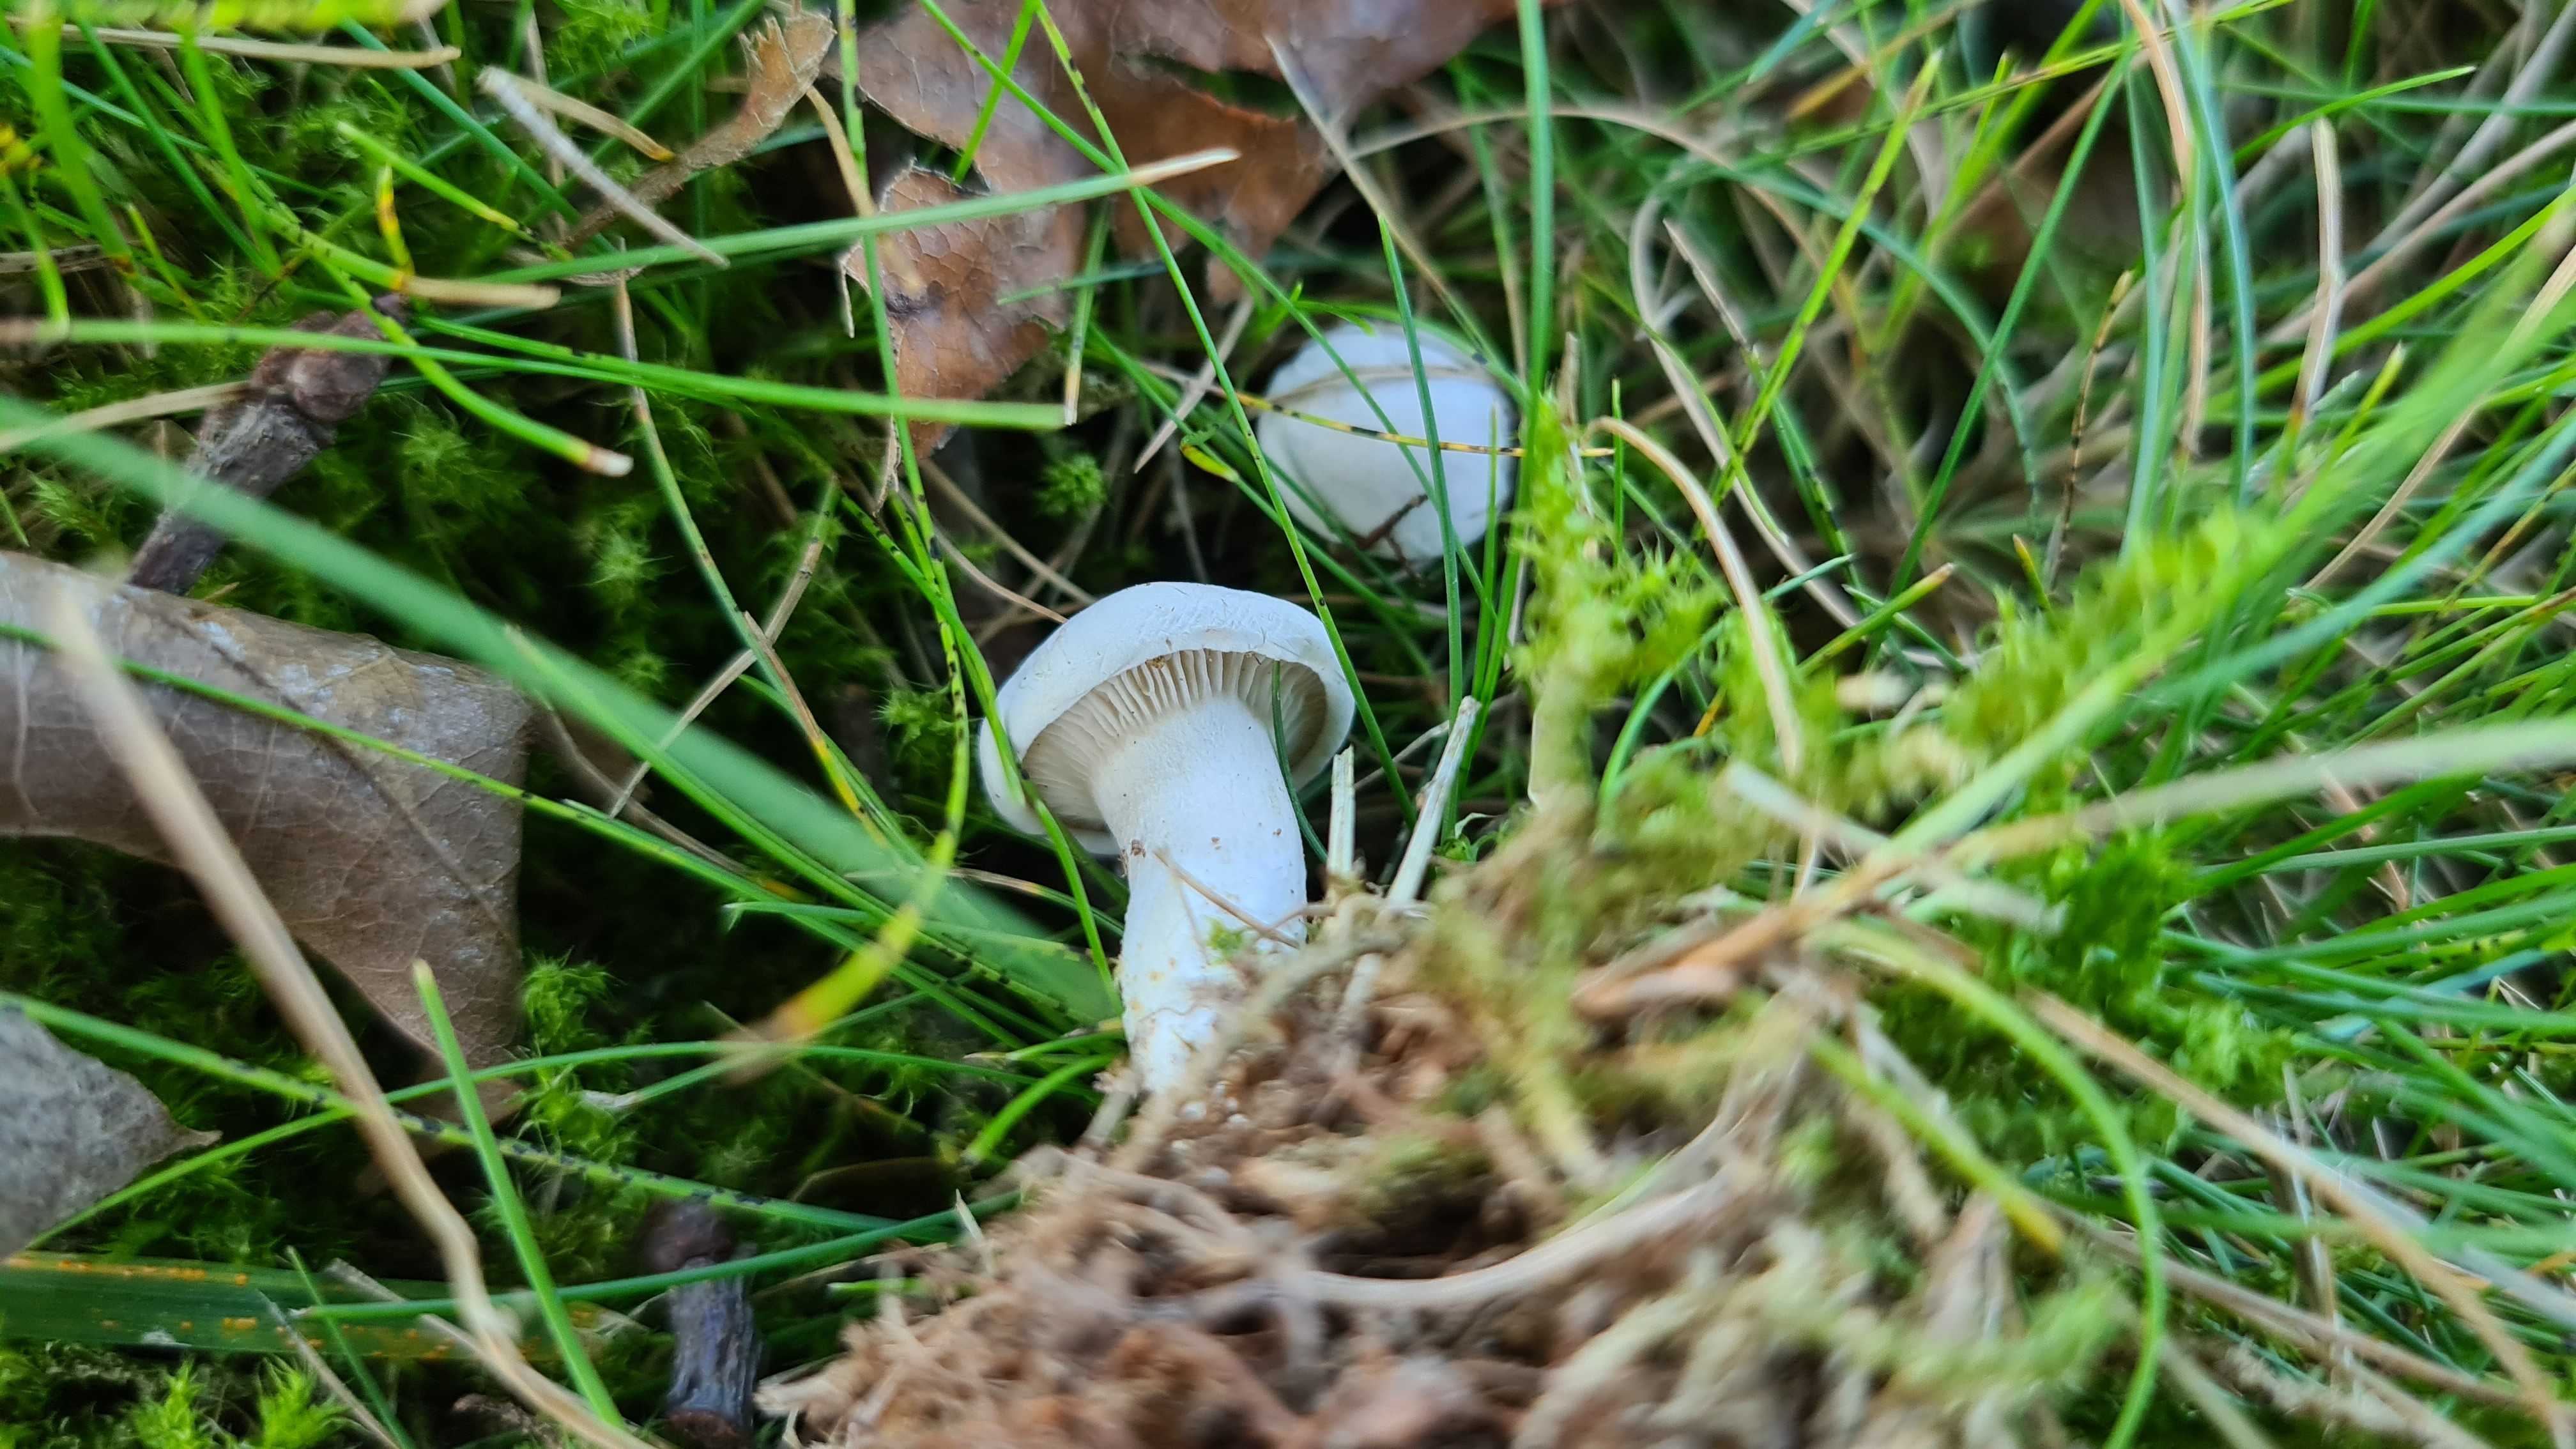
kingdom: Fungi
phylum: Basidiomycota
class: Agaricomycetes
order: Agaricales
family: Entolomataceae
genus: Clitopilus
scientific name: Clitopilus prunulus
